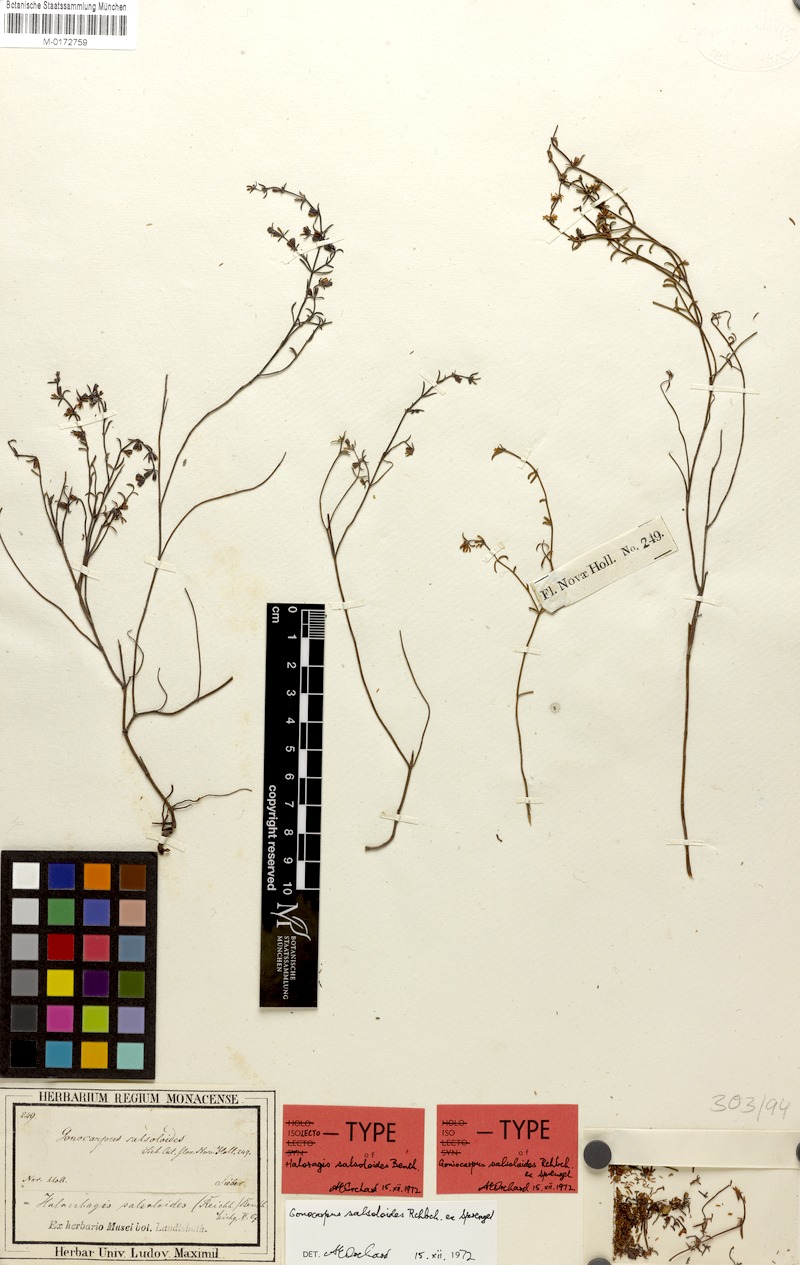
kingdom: Plantae
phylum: Tracheophyta
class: Magnoliopsida
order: Saxifragales
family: Haloragaceae
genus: Gonocarpus
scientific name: Gonocarpus salsoloides
